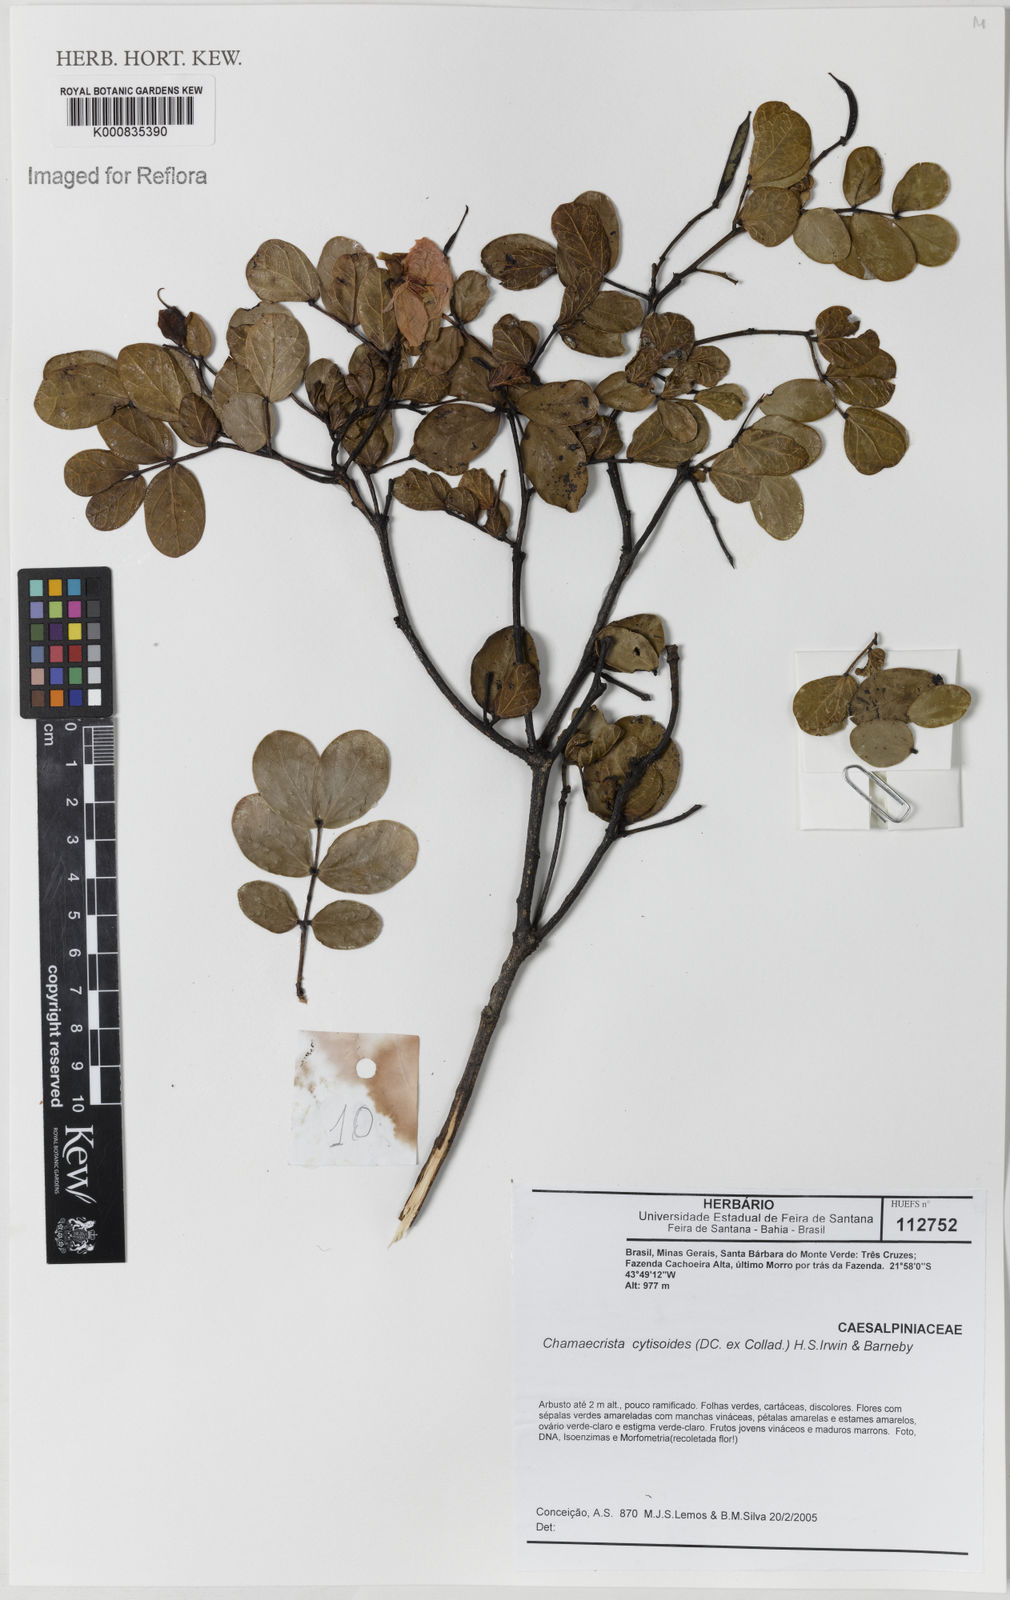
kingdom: Plantae
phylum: Tracheophyta
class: Magnoliopsida
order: Fabales
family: Fabaceae
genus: Chamaecrista
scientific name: Chamaecrista cytisoides
